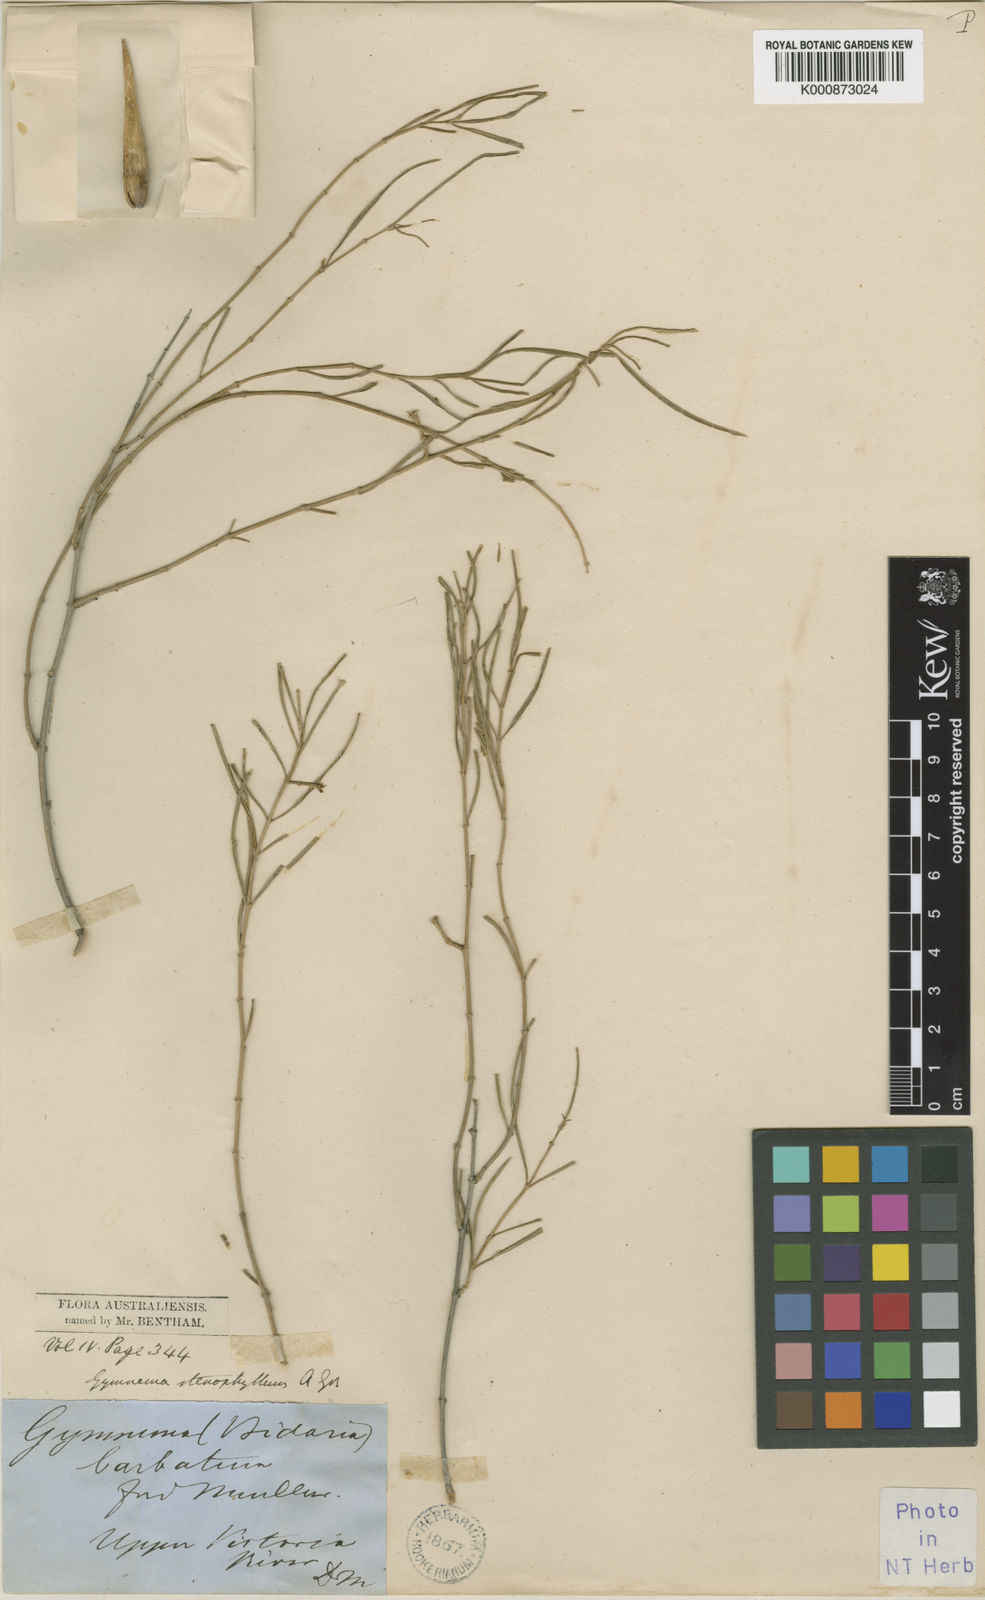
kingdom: Plantae
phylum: Tracheophyta
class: Magnoliopsida
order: Gentianales
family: Apocynaceae
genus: Gymnema
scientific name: Gymnema erectum
